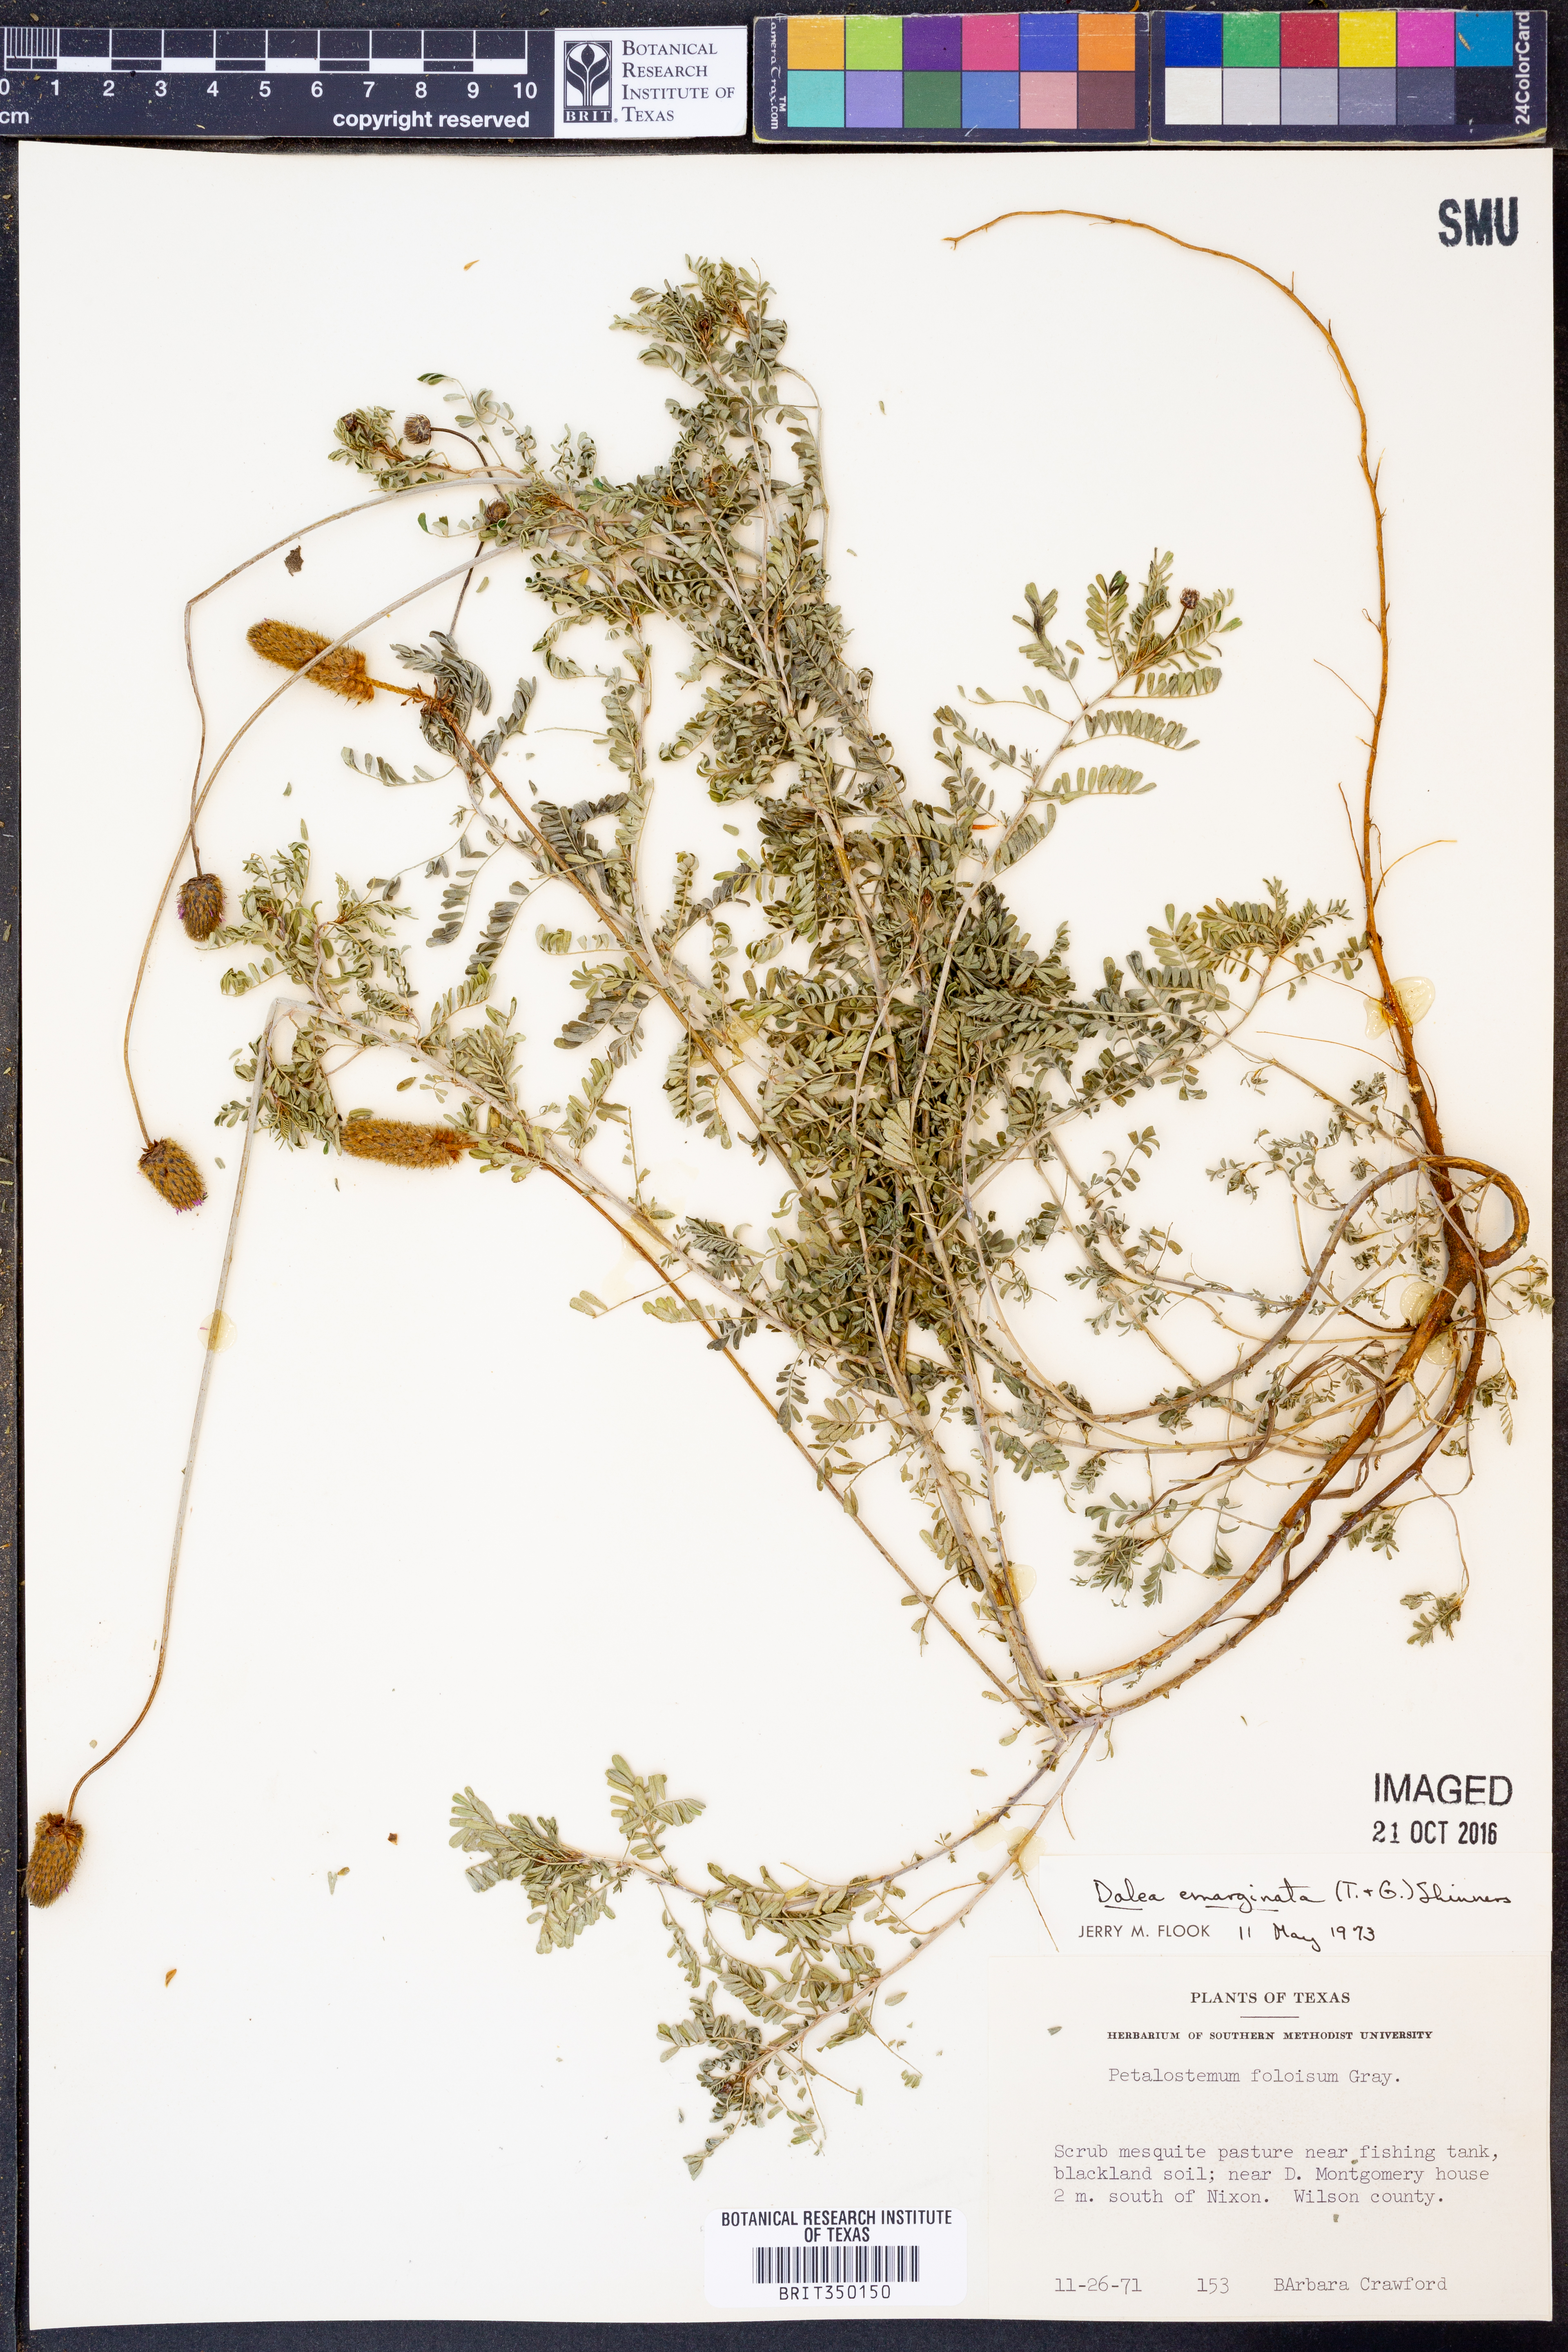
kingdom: Plantae
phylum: Tracheophyta
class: Magnoliopsida
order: Fabales
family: Fabaceae
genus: Dalea
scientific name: Dalea emarginata
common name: Wedgeleaf prairie clover
